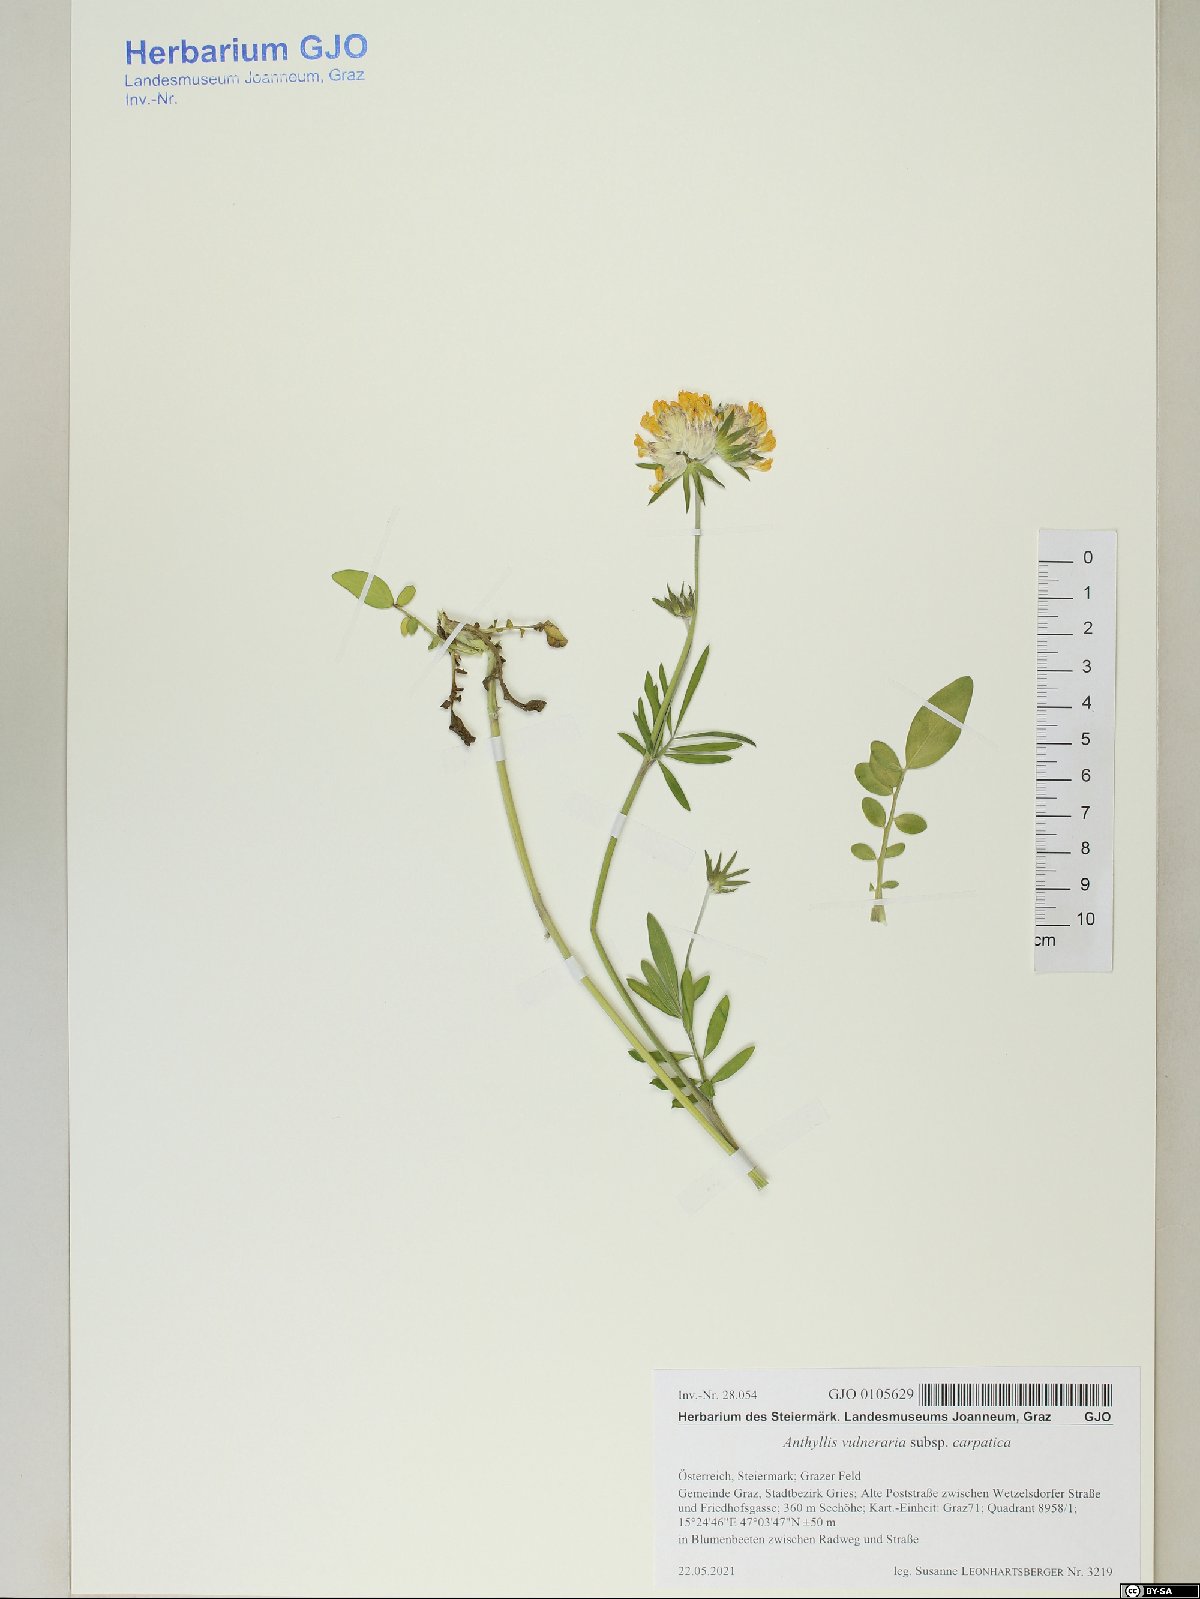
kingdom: Plantae
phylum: Tracheophyta
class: Magnoliopsida
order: Fabales
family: Fabaceae
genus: Anthyllis
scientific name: Anthyllis vulneraria
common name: Kidney vetch
